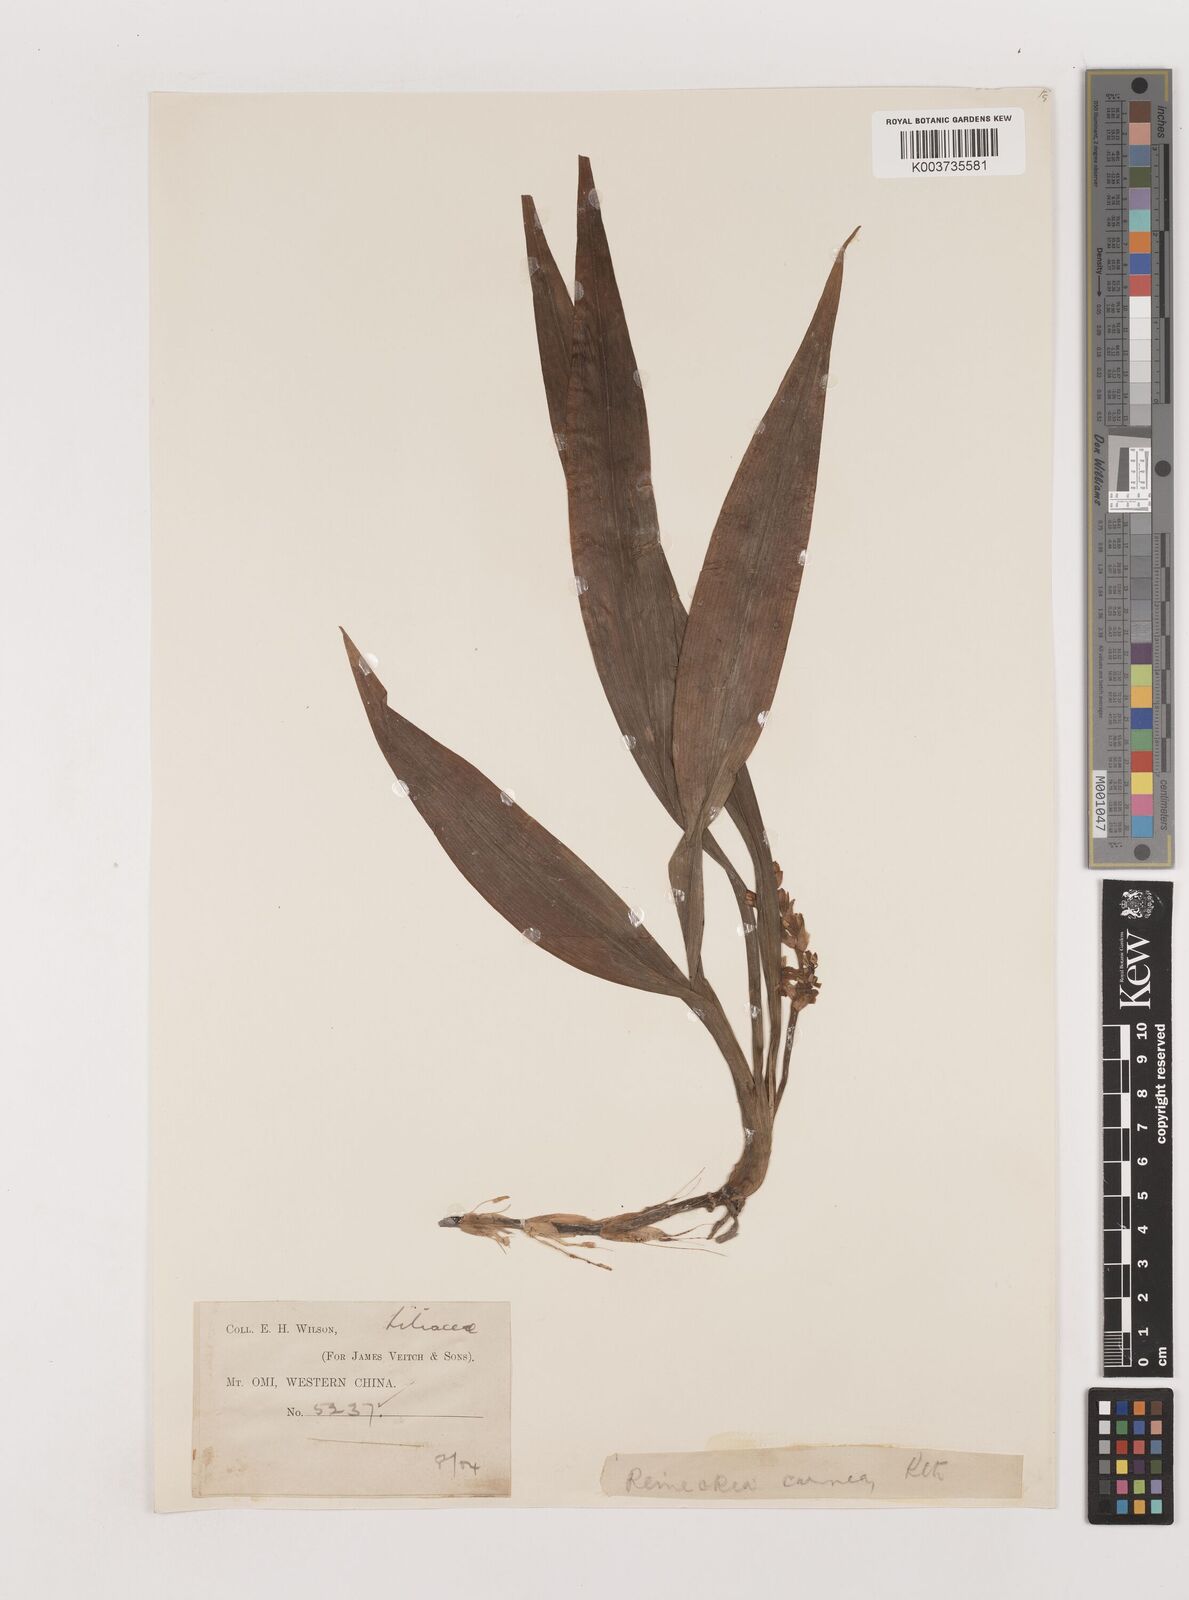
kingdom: Plantae
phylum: Tracheophyta
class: Liliopsida
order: Asparagales
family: Asparagaceae
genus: Reineckea
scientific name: Reineckea carnea
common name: Reineckea
